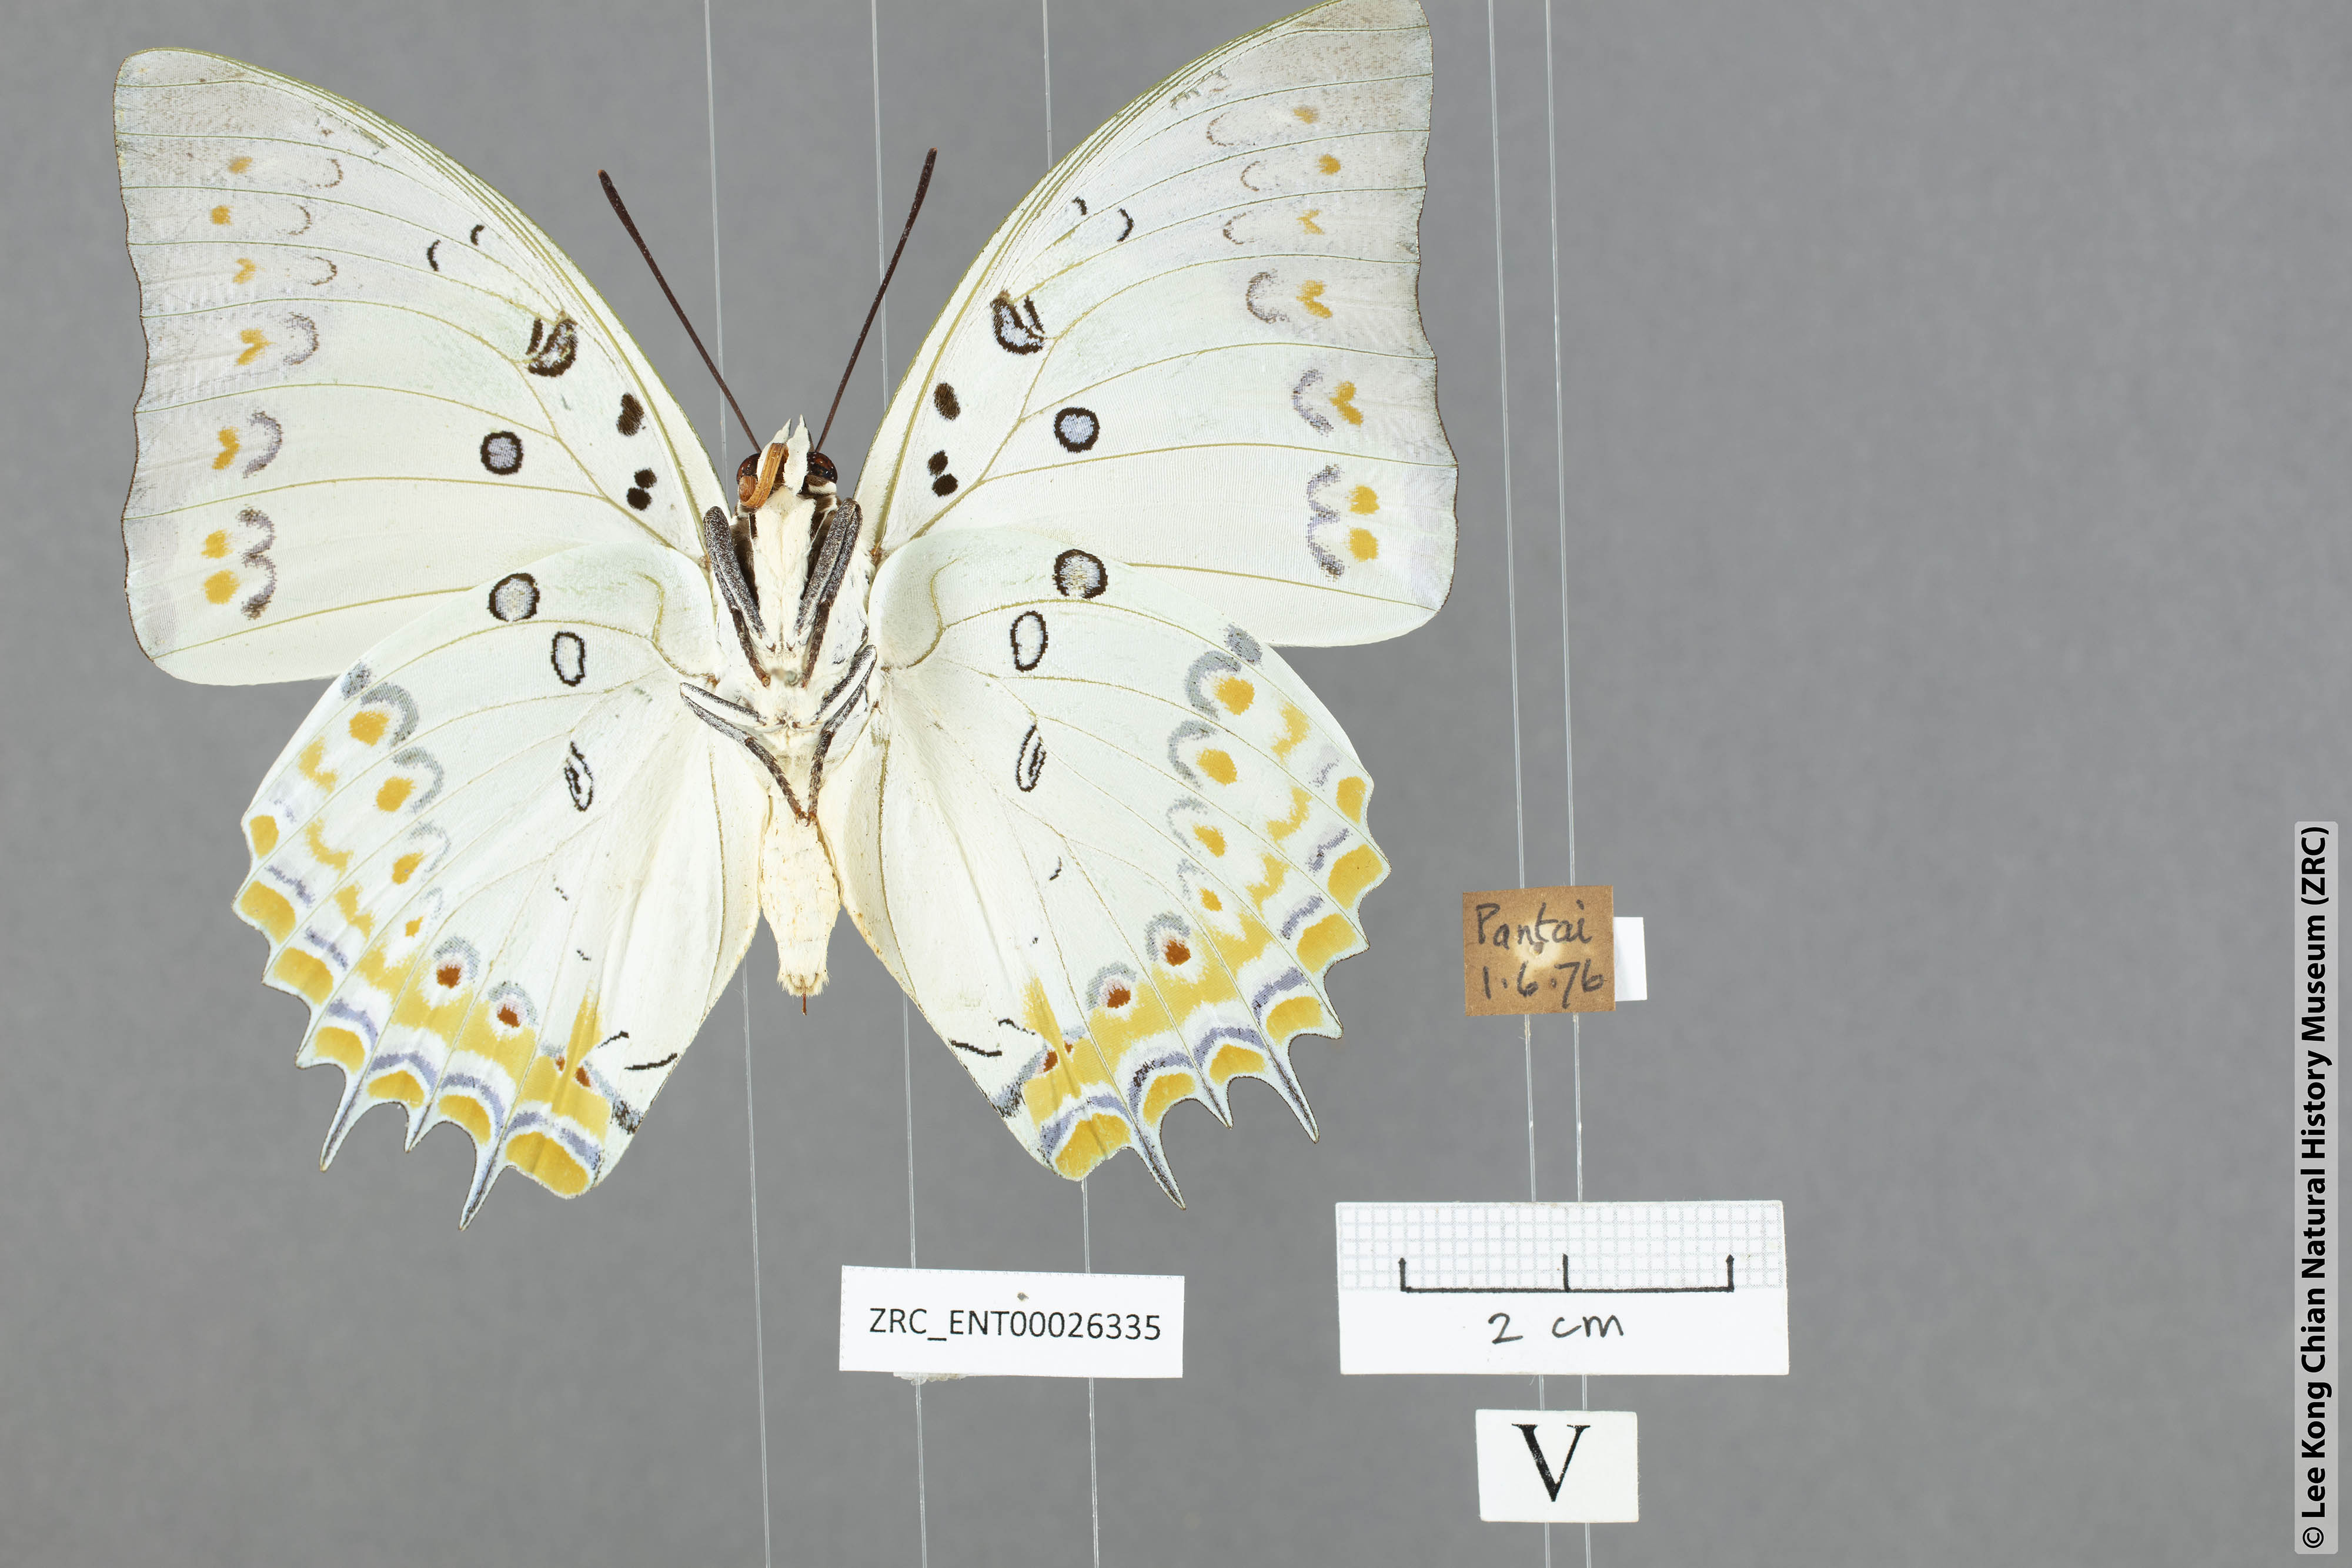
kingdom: Animalia
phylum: Arthropoda
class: Insecta
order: Lepidoptera
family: Nymphalidae
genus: Polyura
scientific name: Polyura delphis
